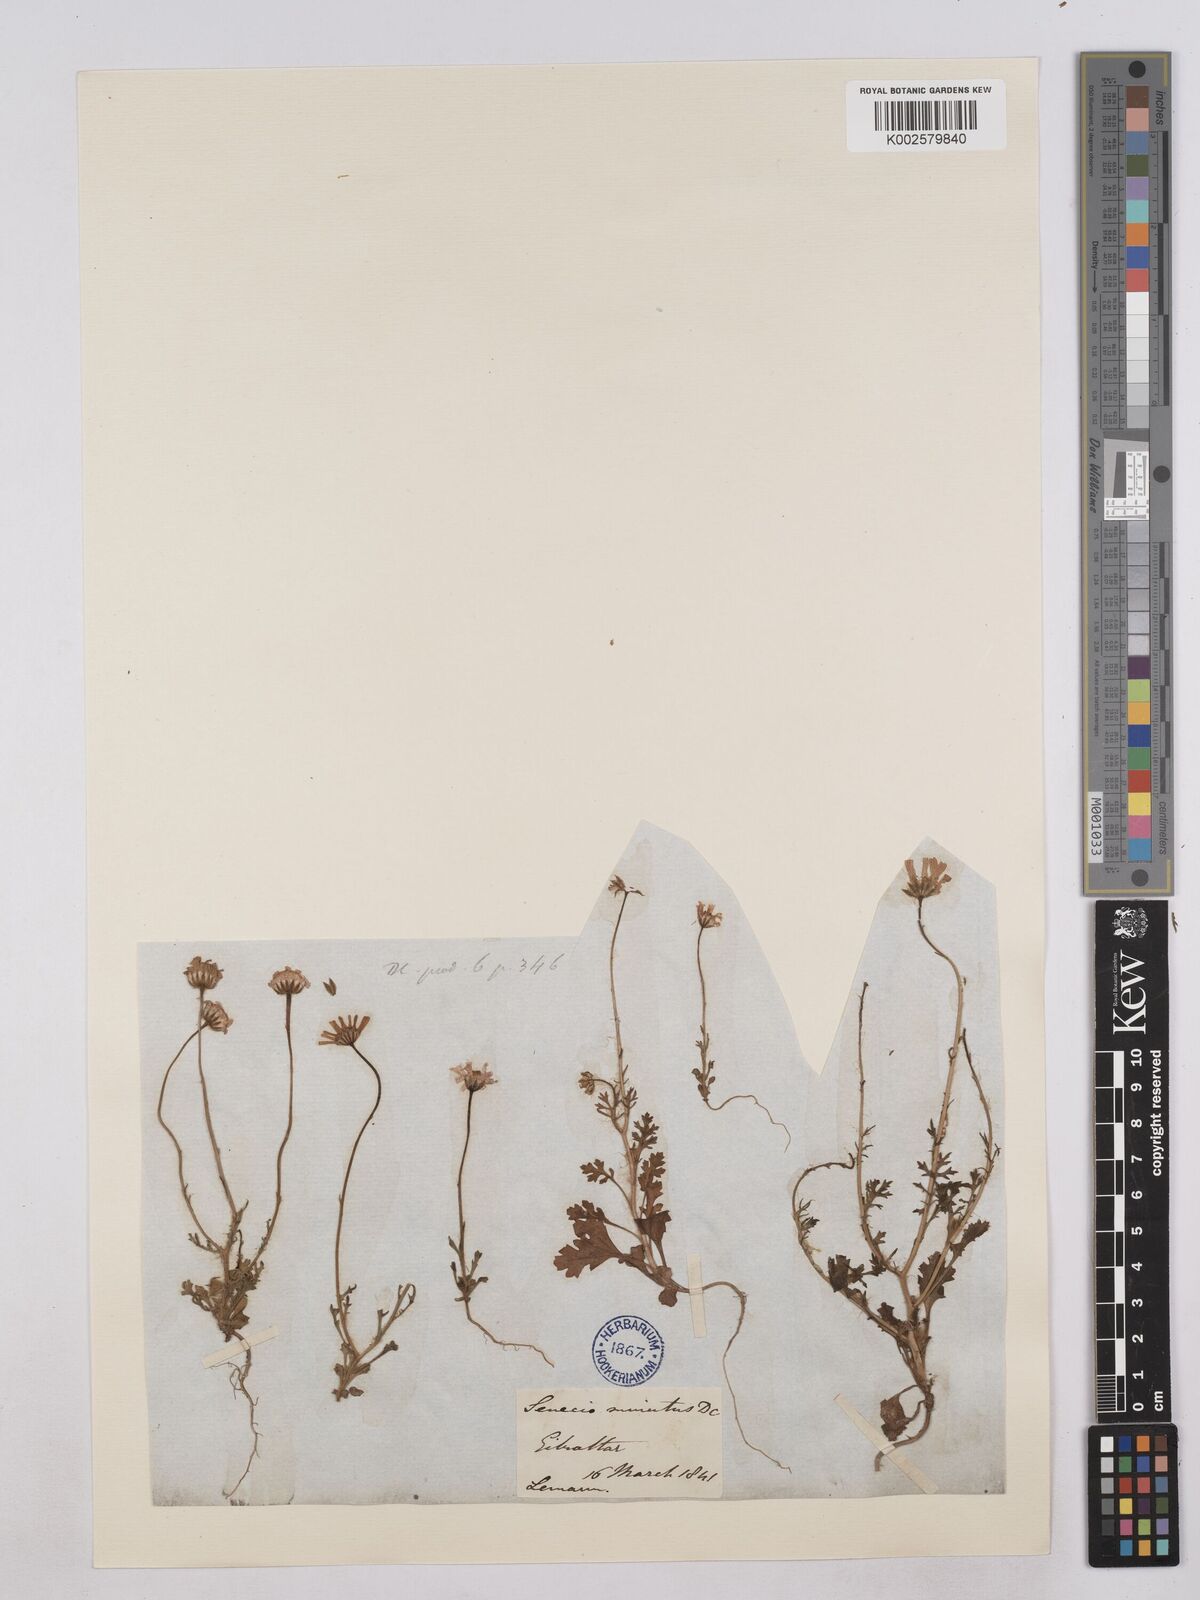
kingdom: Plantae
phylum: Tracheophyta
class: Magnoliopsida
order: Asterales
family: Asteraceae
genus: Jacobaea
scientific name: Jacobaea minuta
